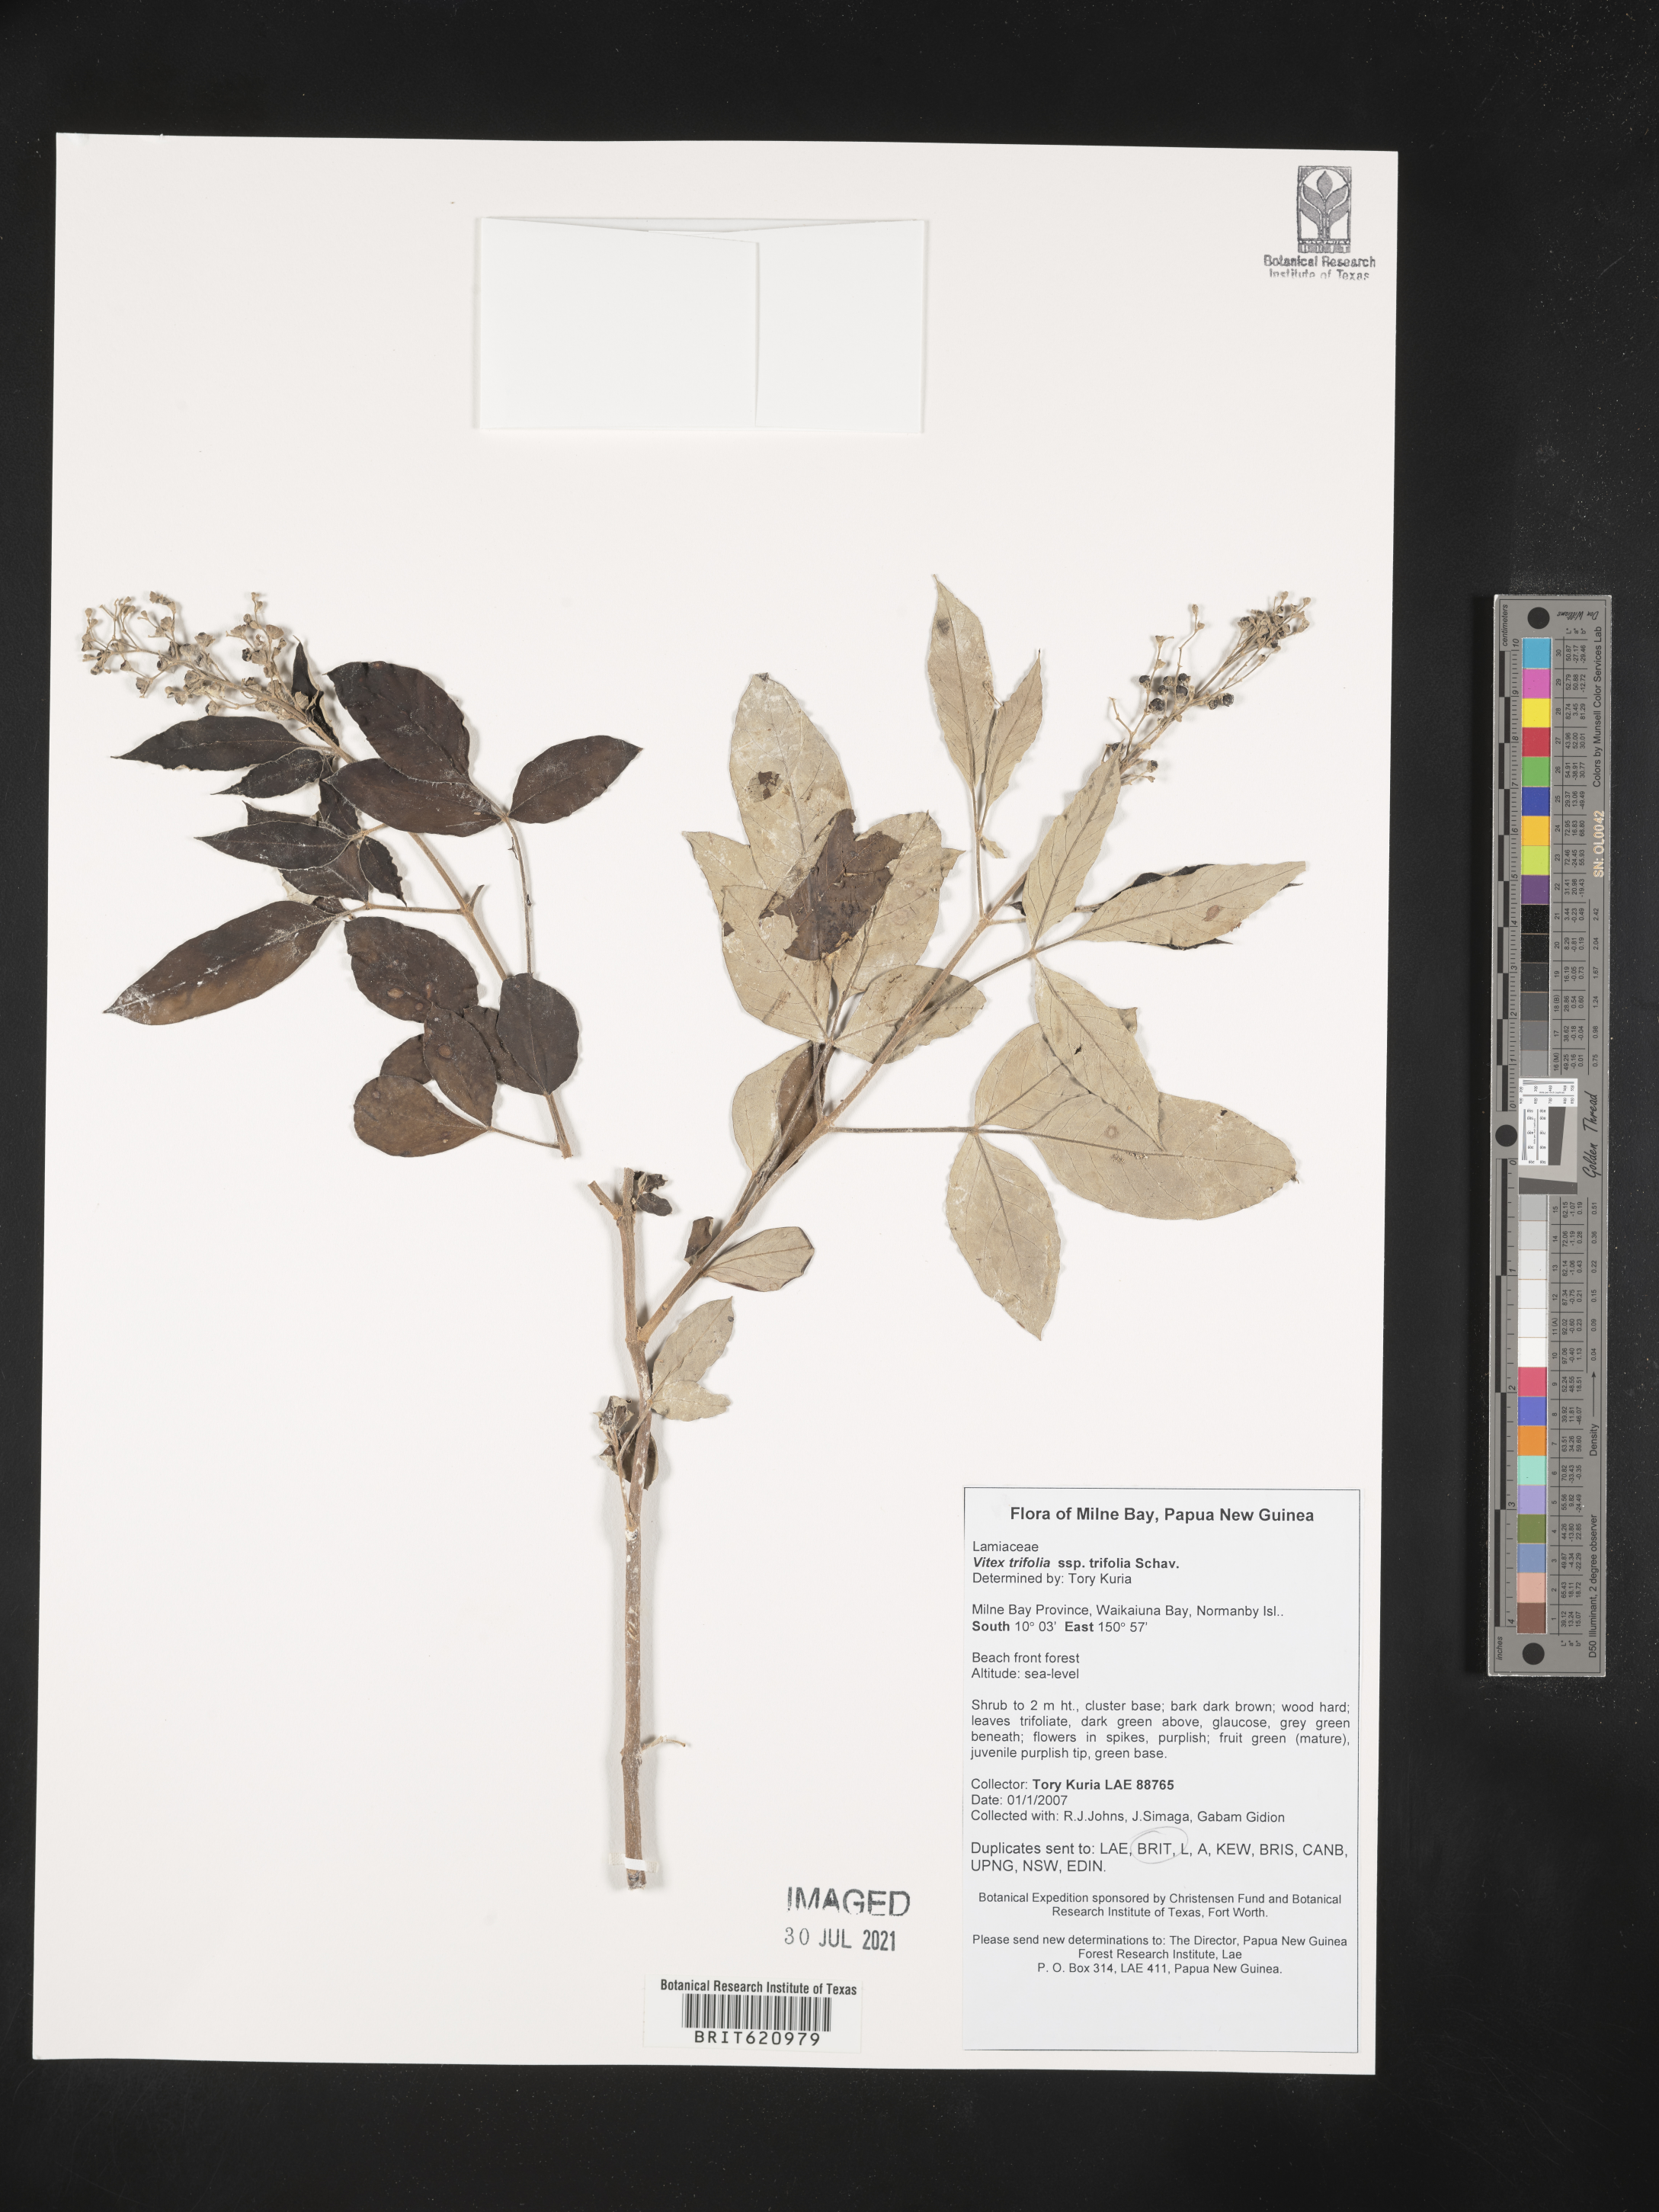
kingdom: Plantae
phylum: Tracheophyta
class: Magnoliopsida
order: Lamiales
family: Lamiaceae
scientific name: Lamiaceae
